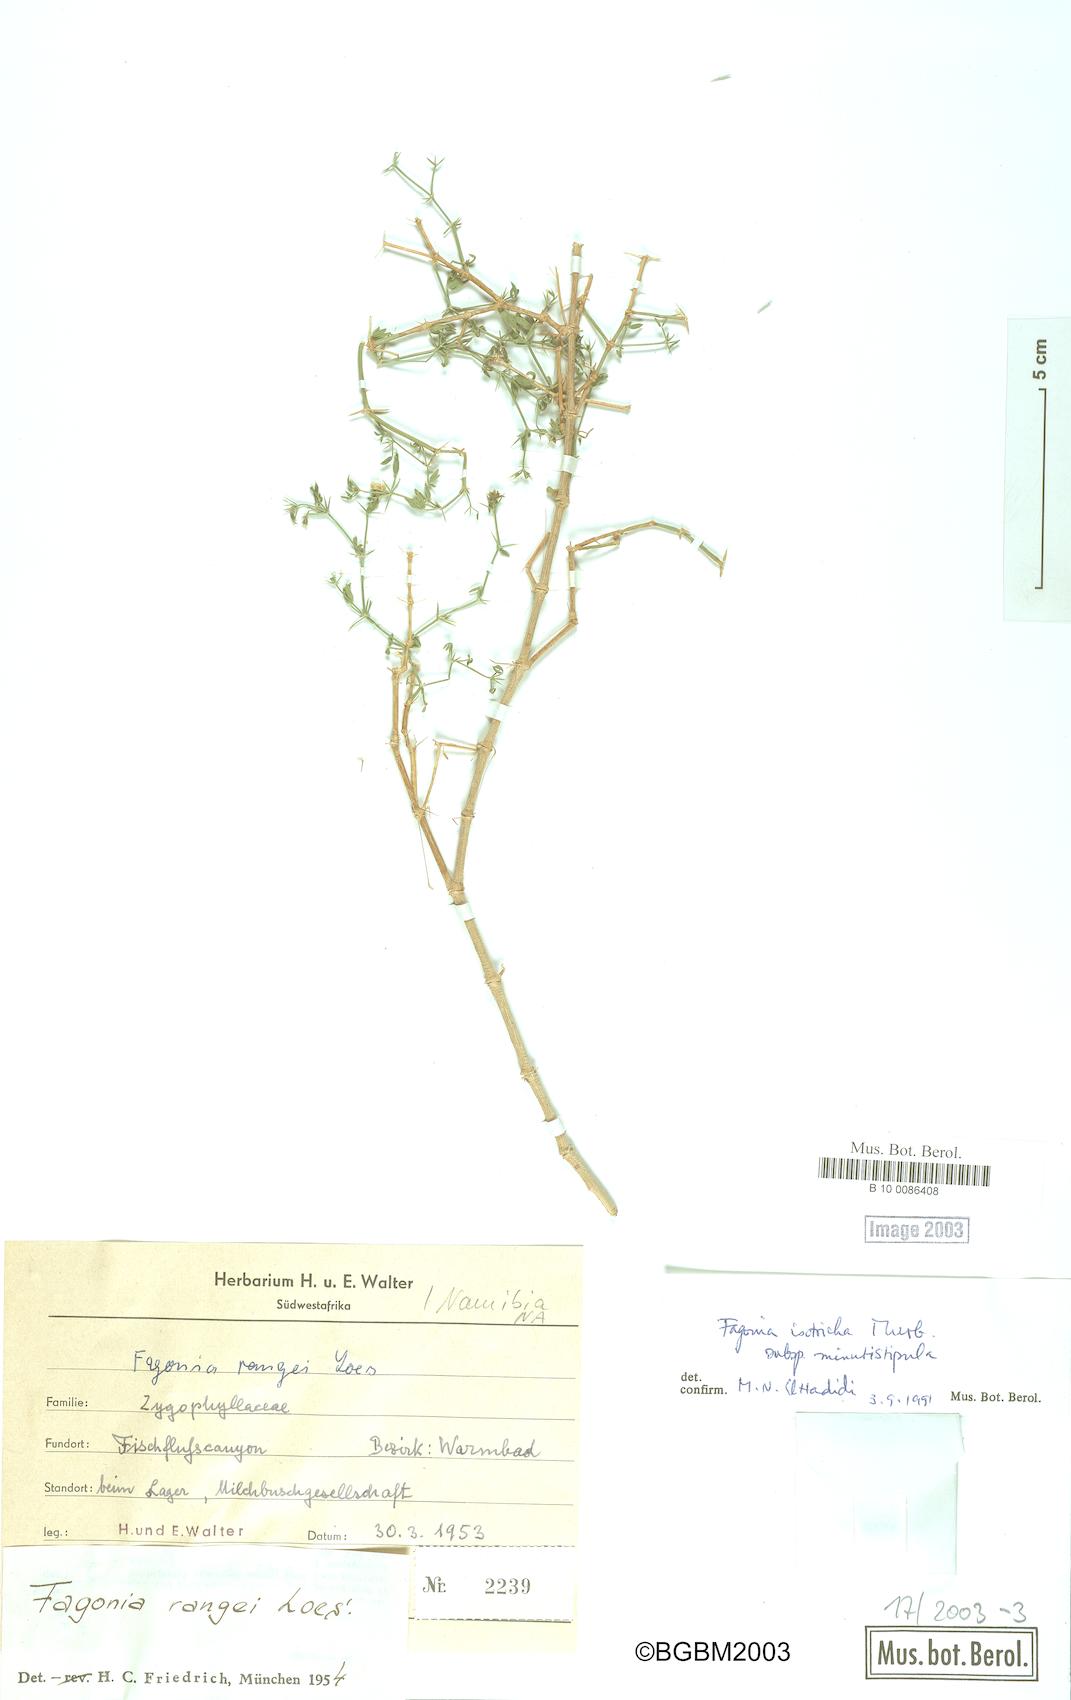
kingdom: Plantae
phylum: Tracheophyta
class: Magnoliopsida
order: Zygophyllales
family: Zygophyllaceae
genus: Fagonia
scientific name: Fagonia latifolia
